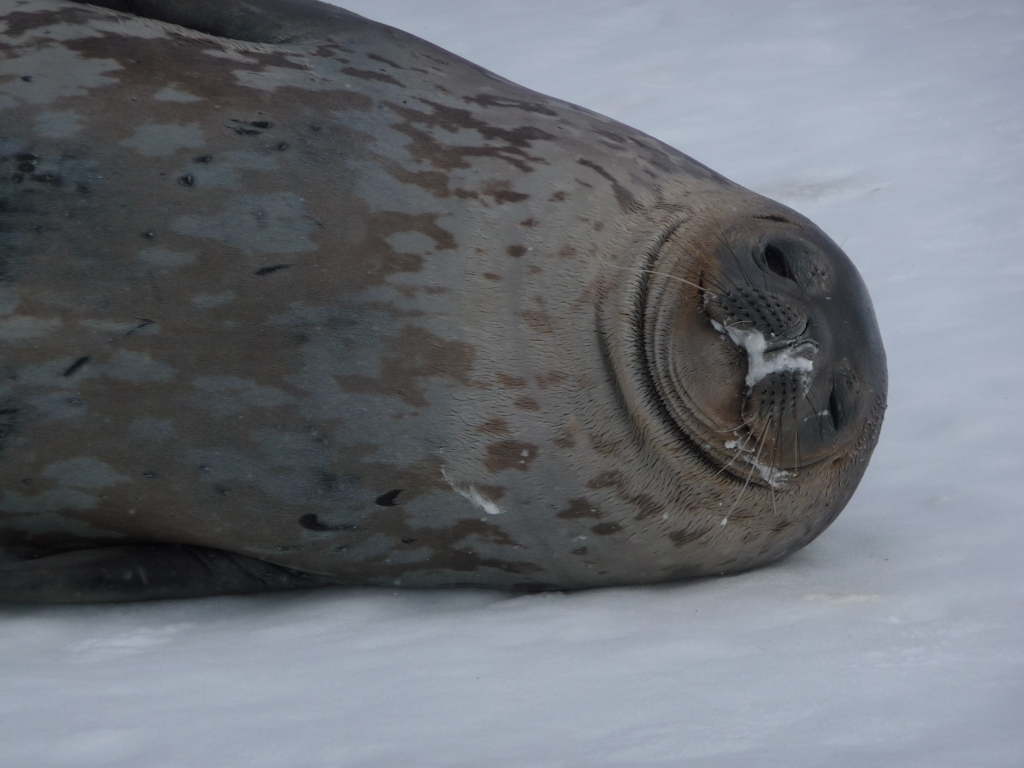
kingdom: Animalia
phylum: Chordata
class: Mammalia
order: Carnivora
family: Phocidae
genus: Leptonychotes
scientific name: Leptonychotes weddellii
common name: Weddell Seal
